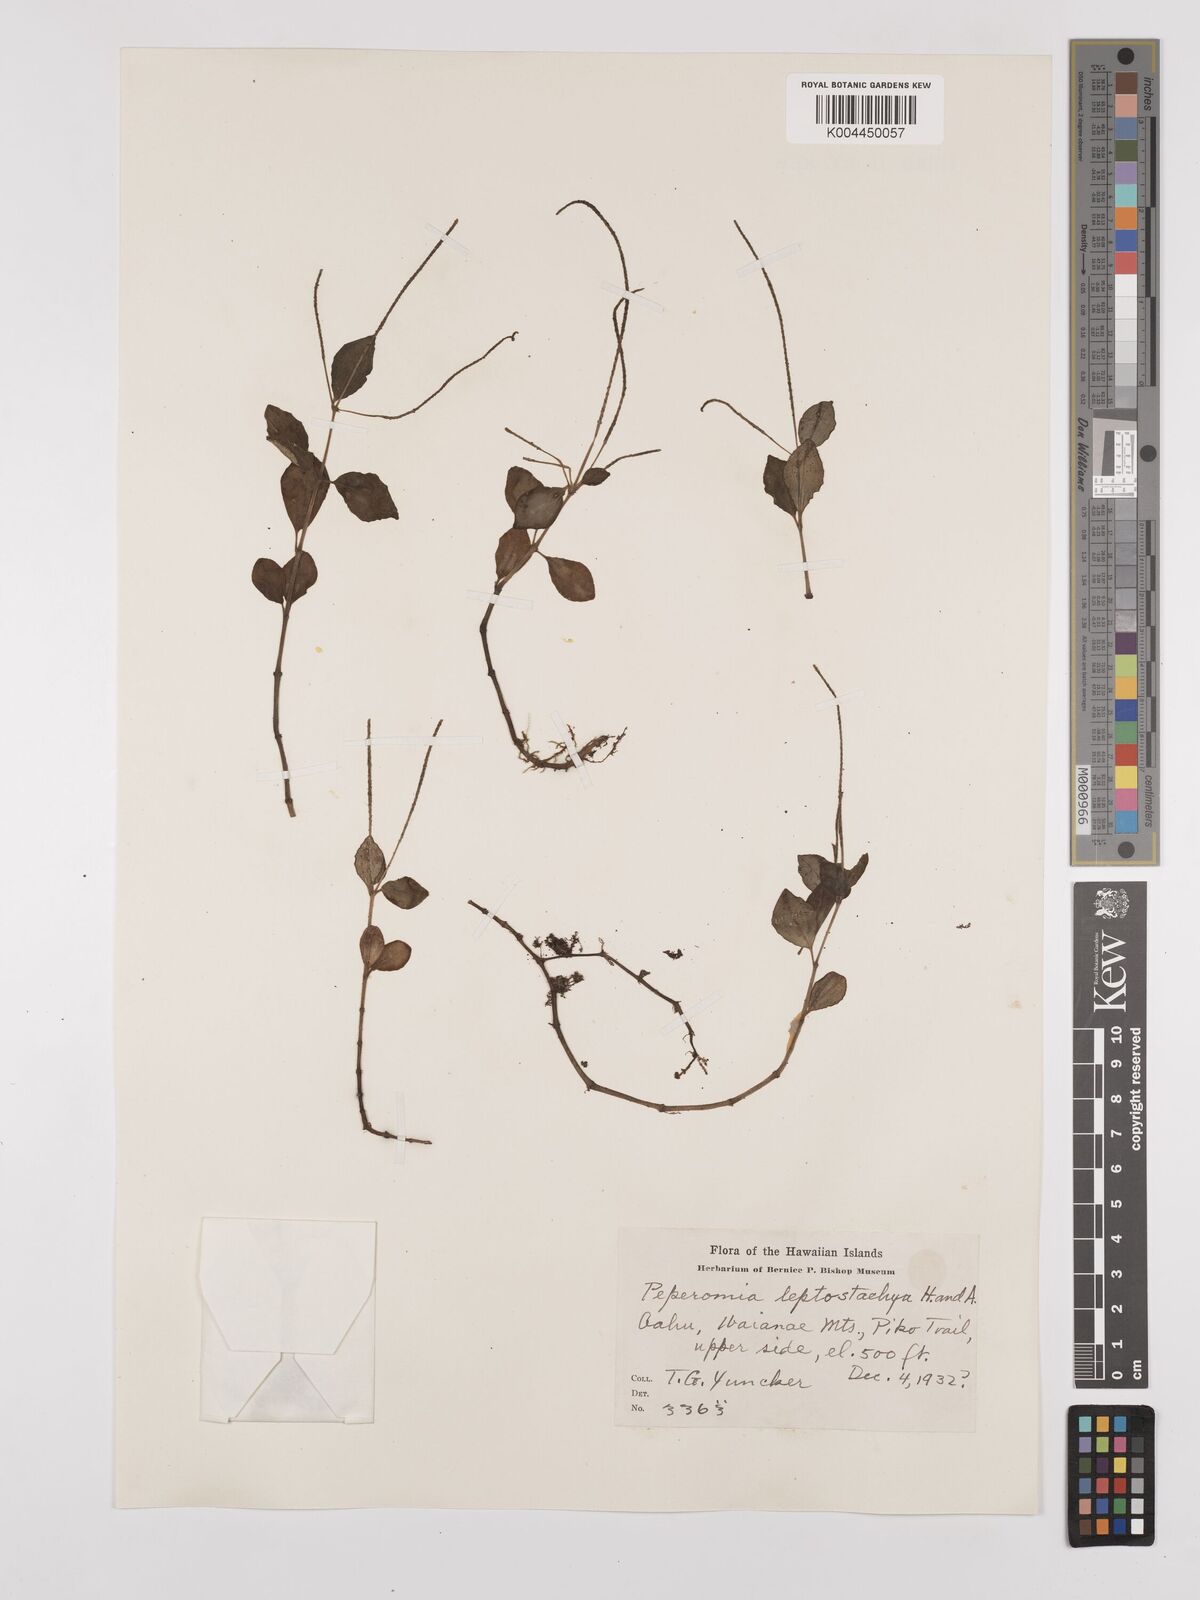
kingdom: Plantae
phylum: Tracheophyta
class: Magnoliopsida
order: Piperales
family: Piperaceae
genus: Peperomia
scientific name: Peperomia leptostachya
